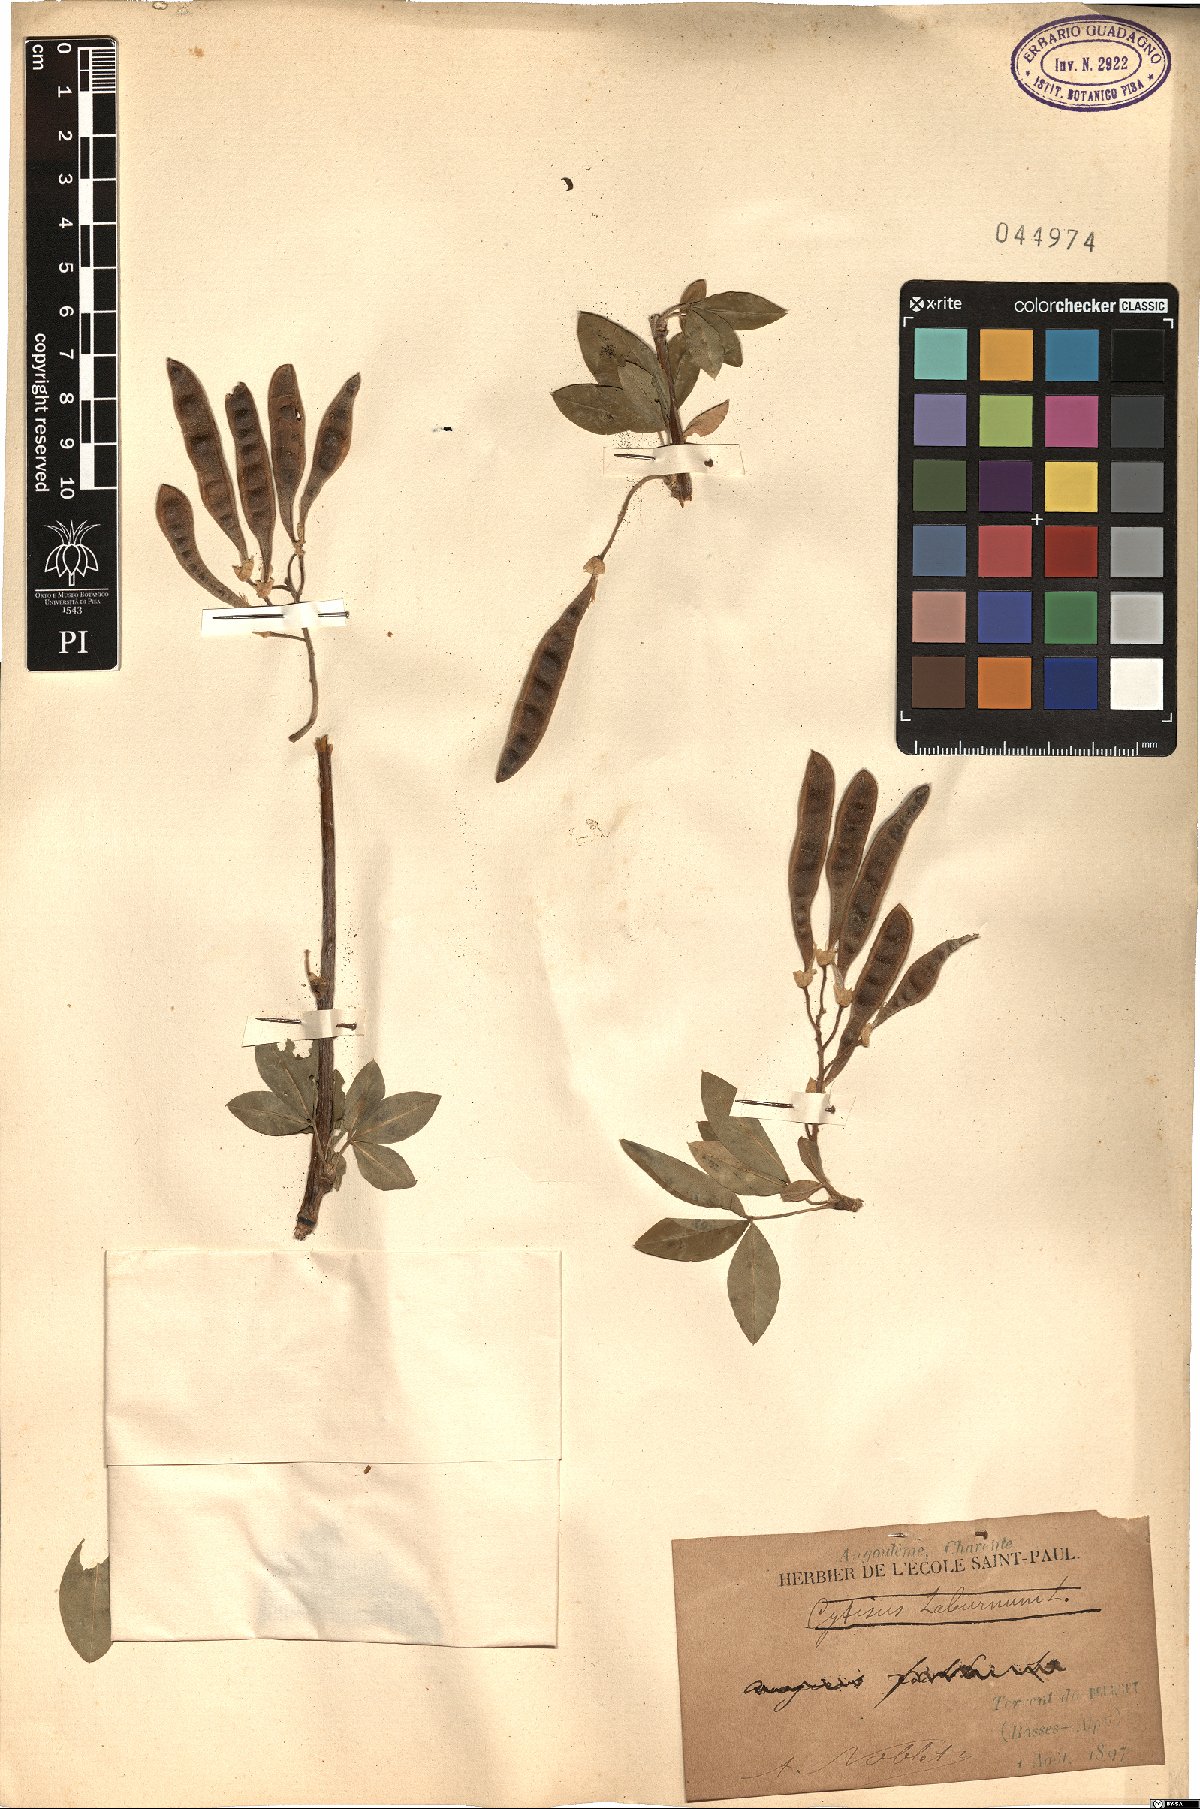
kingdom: Plantae
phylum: Tracheophyta
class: Magnoliopsida
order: Fabales
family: Fabaceae
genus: Laburnum
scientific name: Laburnum anagyroides
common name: Laburnum
